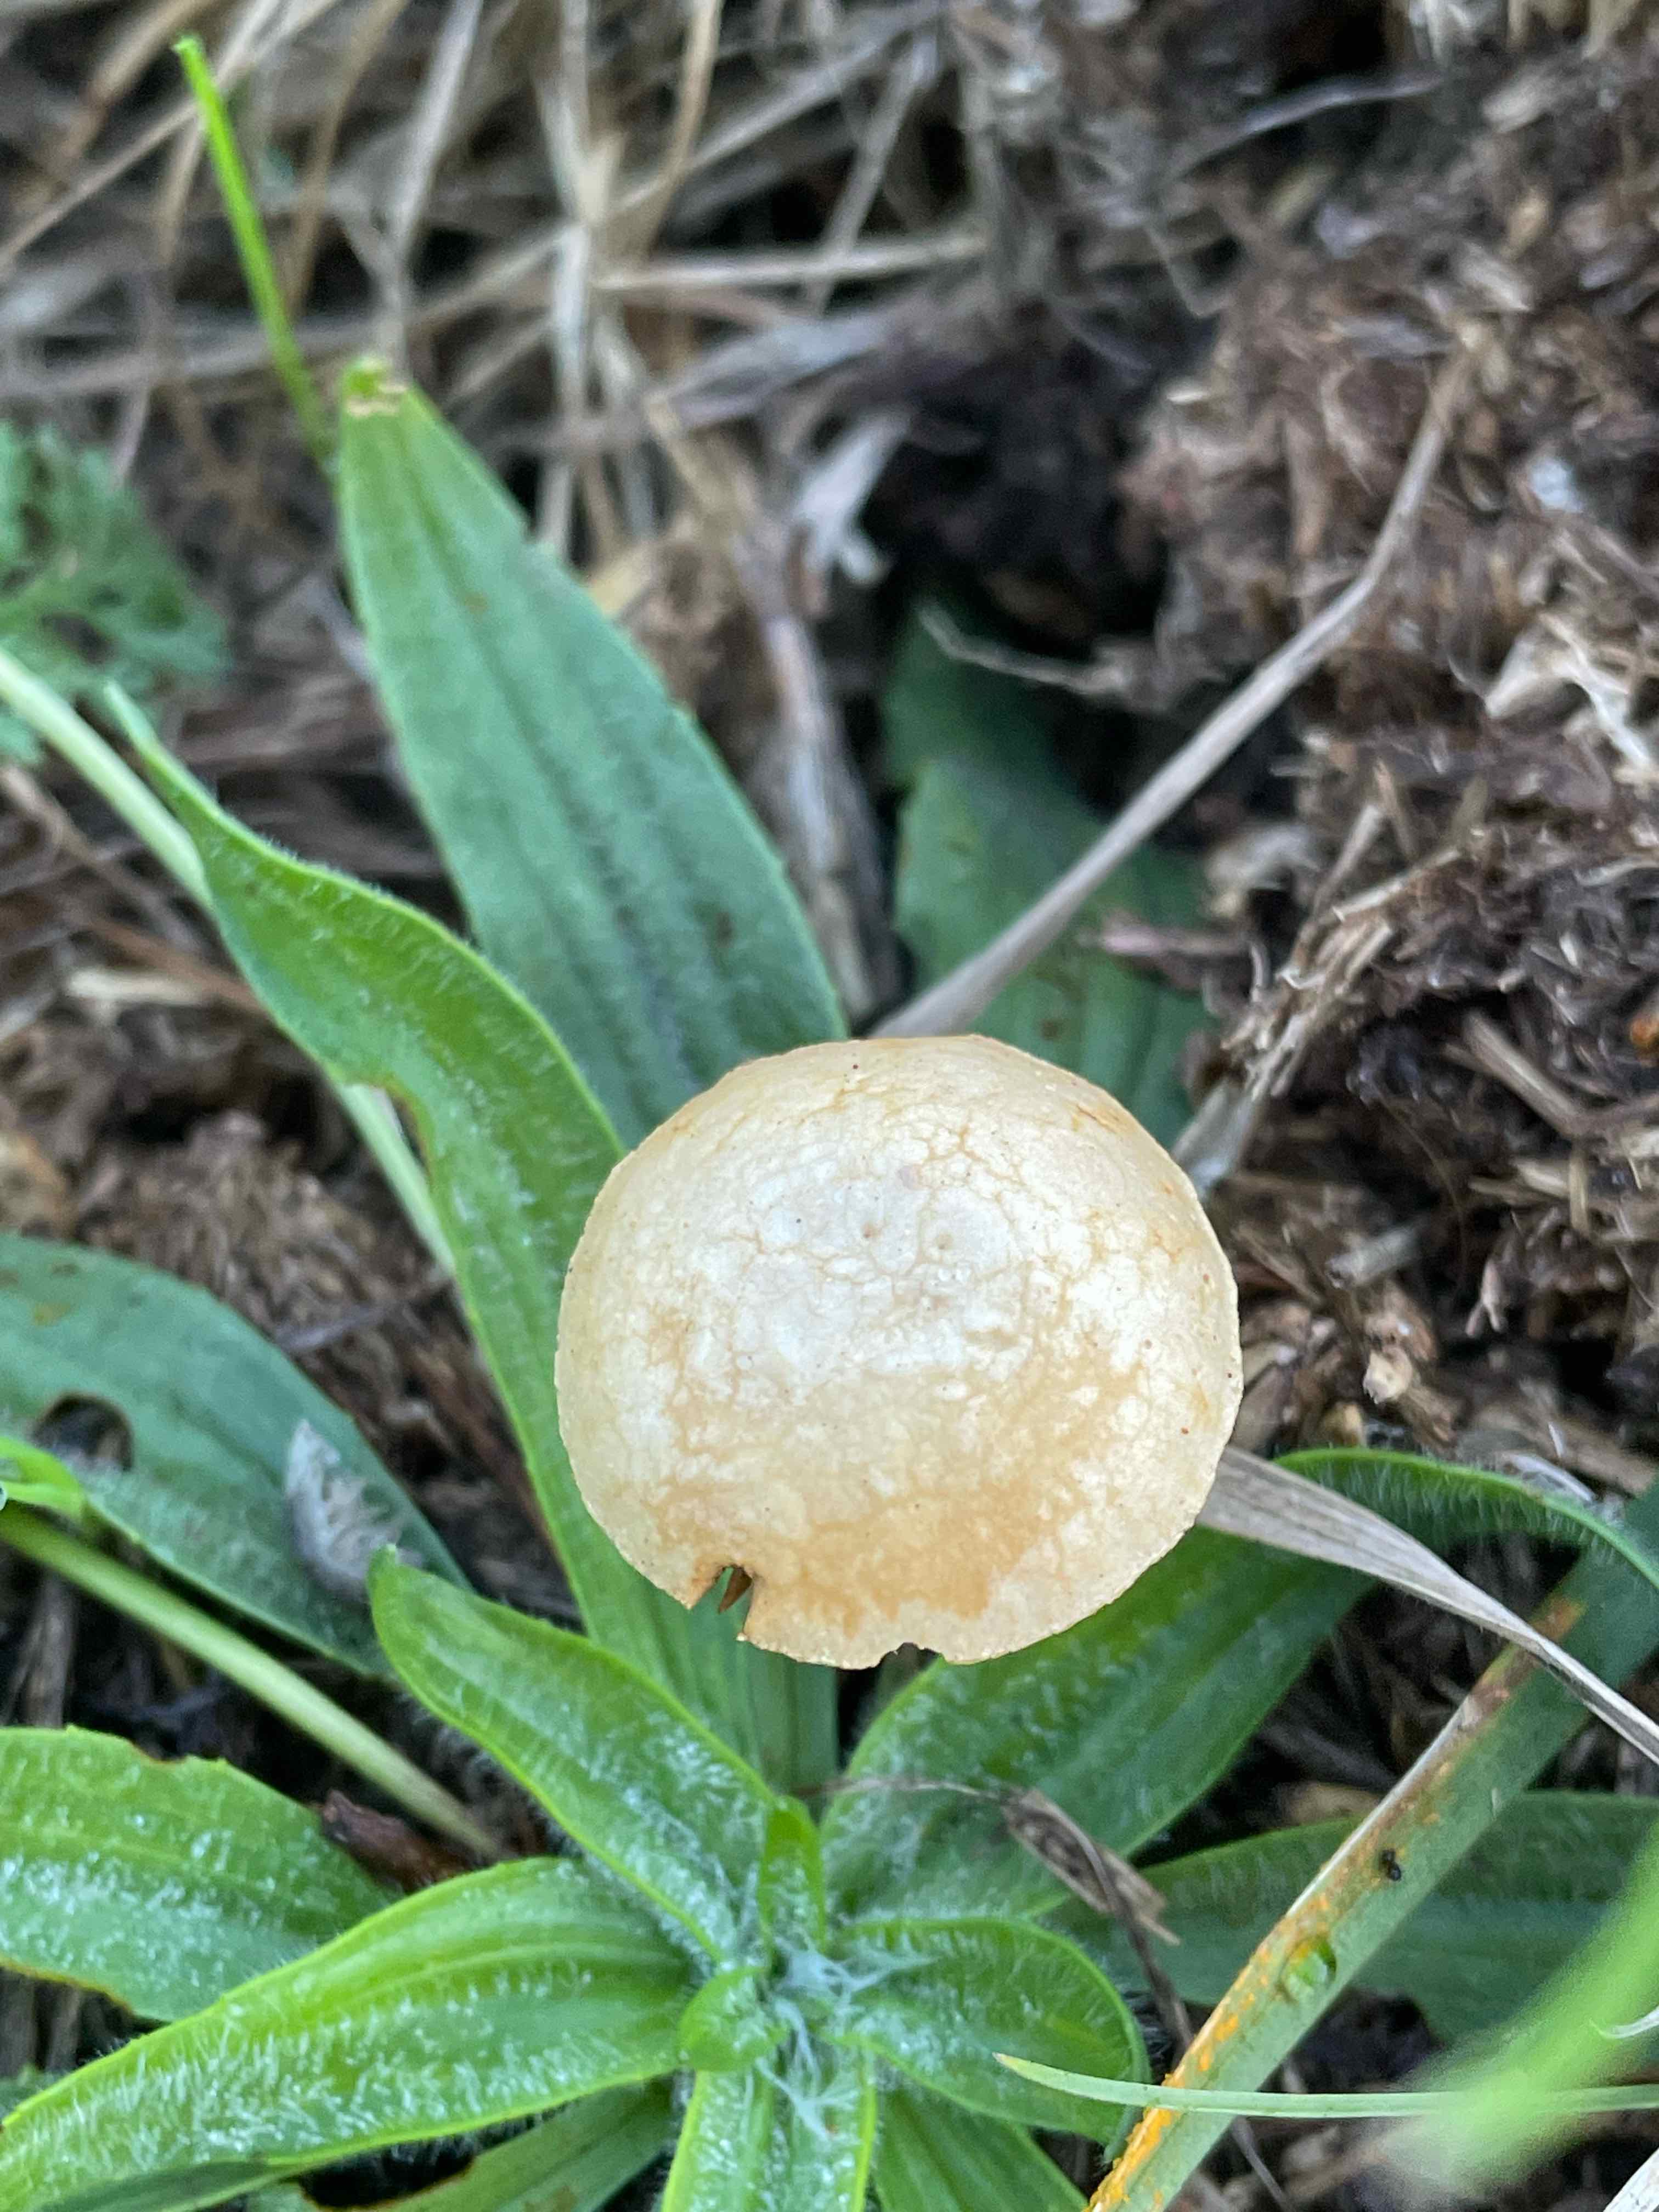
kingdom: Fungi
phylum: Basidiomycota
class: Agaricomycetes
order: Agaricales
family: Strophariaceae
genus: Agrocybe
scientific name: Agrocybe pediades
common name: almindelig agerhat
